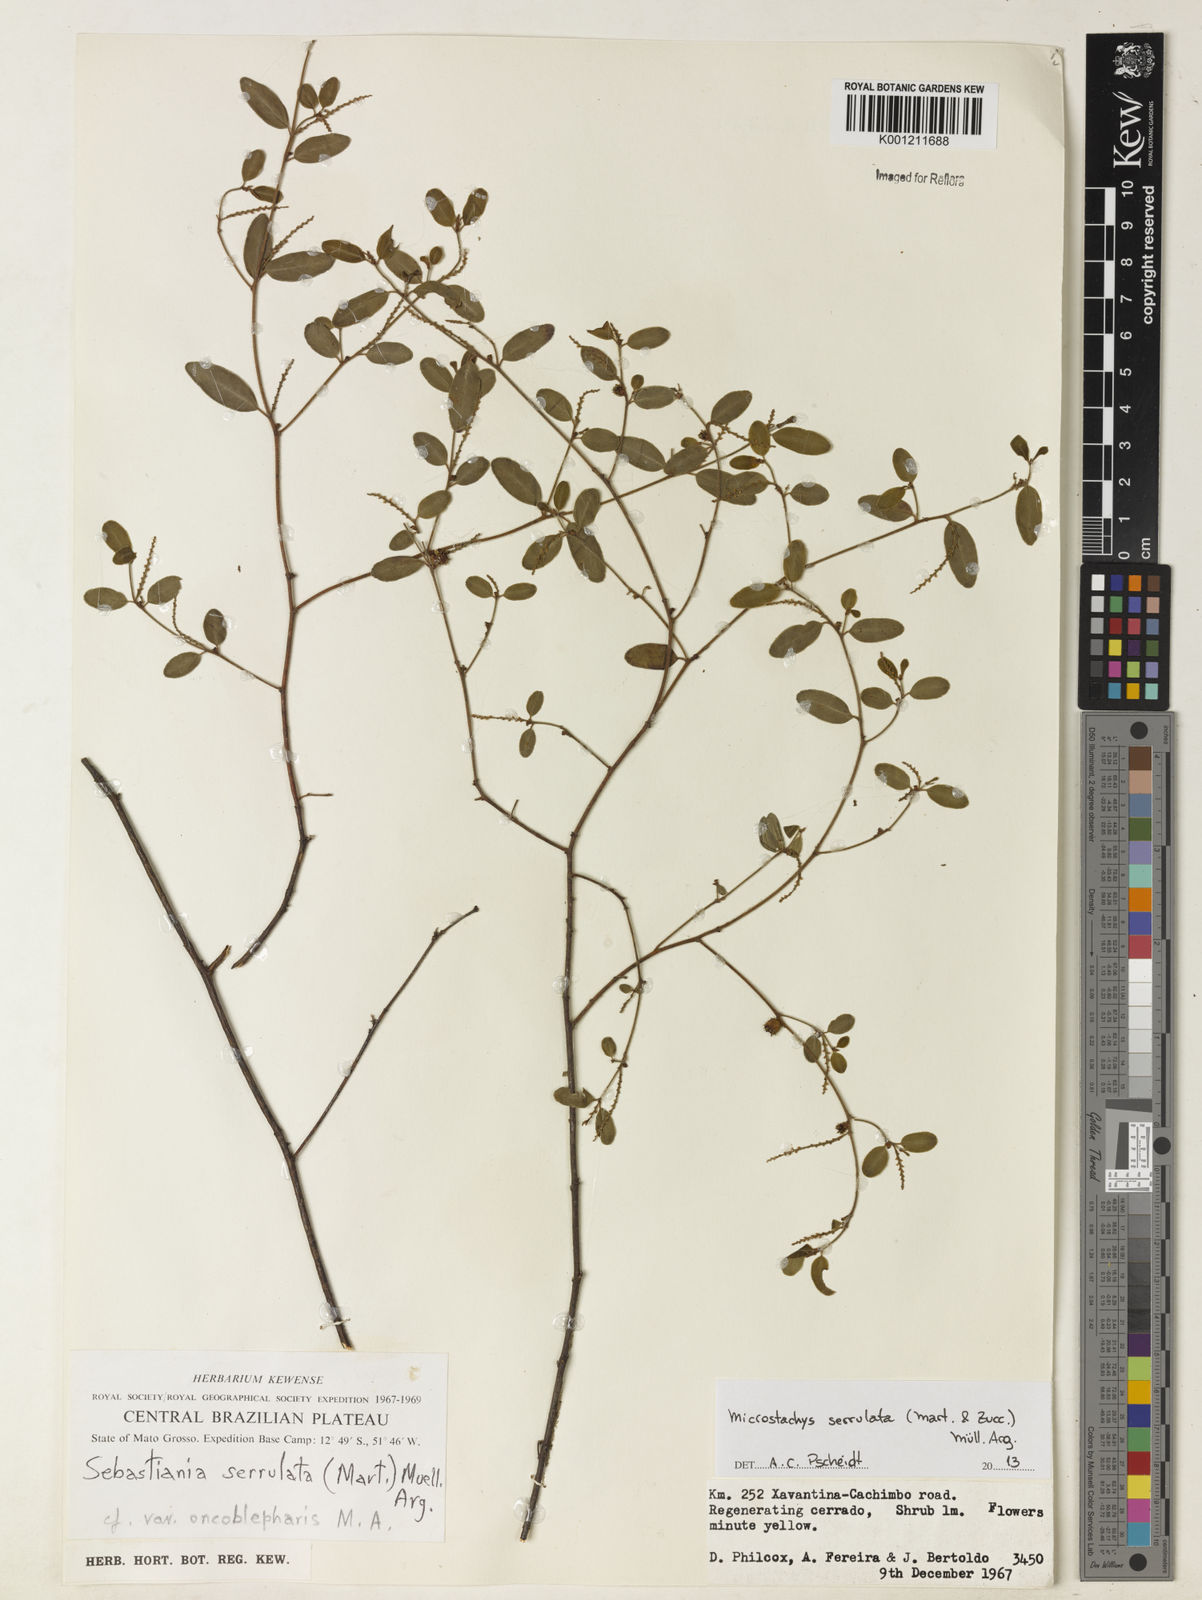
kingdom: Plantae
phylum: Tracheophyta
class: Magnoliopsida
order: Malpighiales
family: Euphorbiaceae
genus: Microstachys
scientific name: Microstachys
